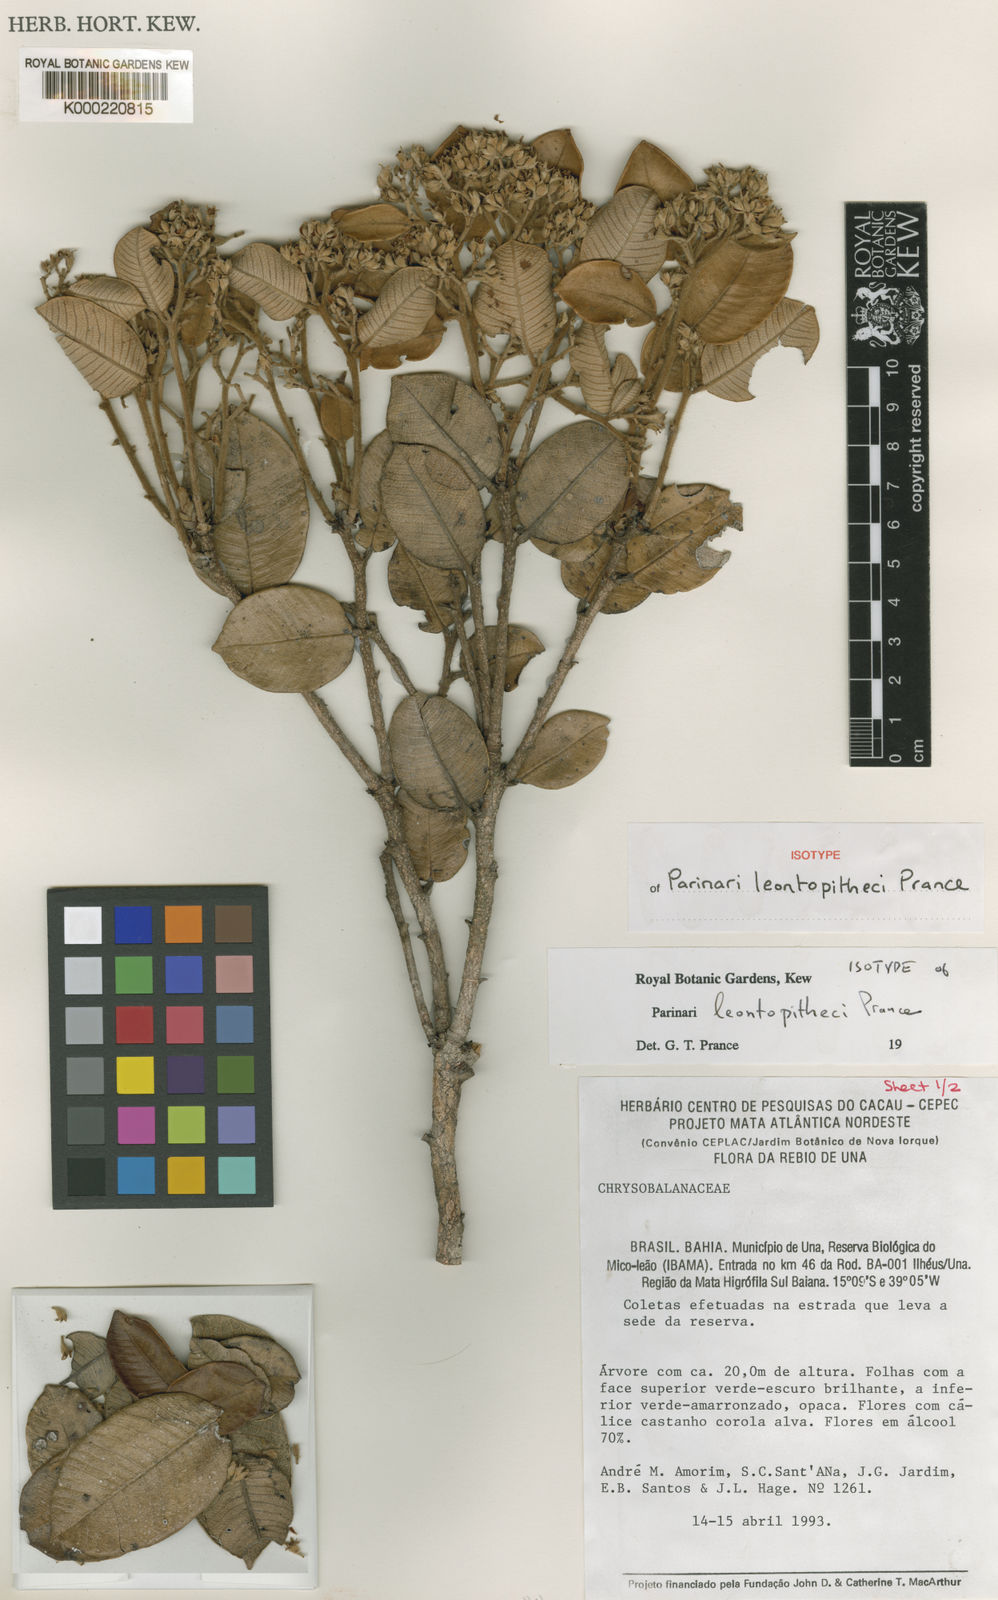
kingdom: Plantae
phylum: Tracheophyta
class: Magnoliopsida
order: Malpighiales
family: Chrysobalanaceae
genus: Parinari
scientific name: Parinari leontopitheci
